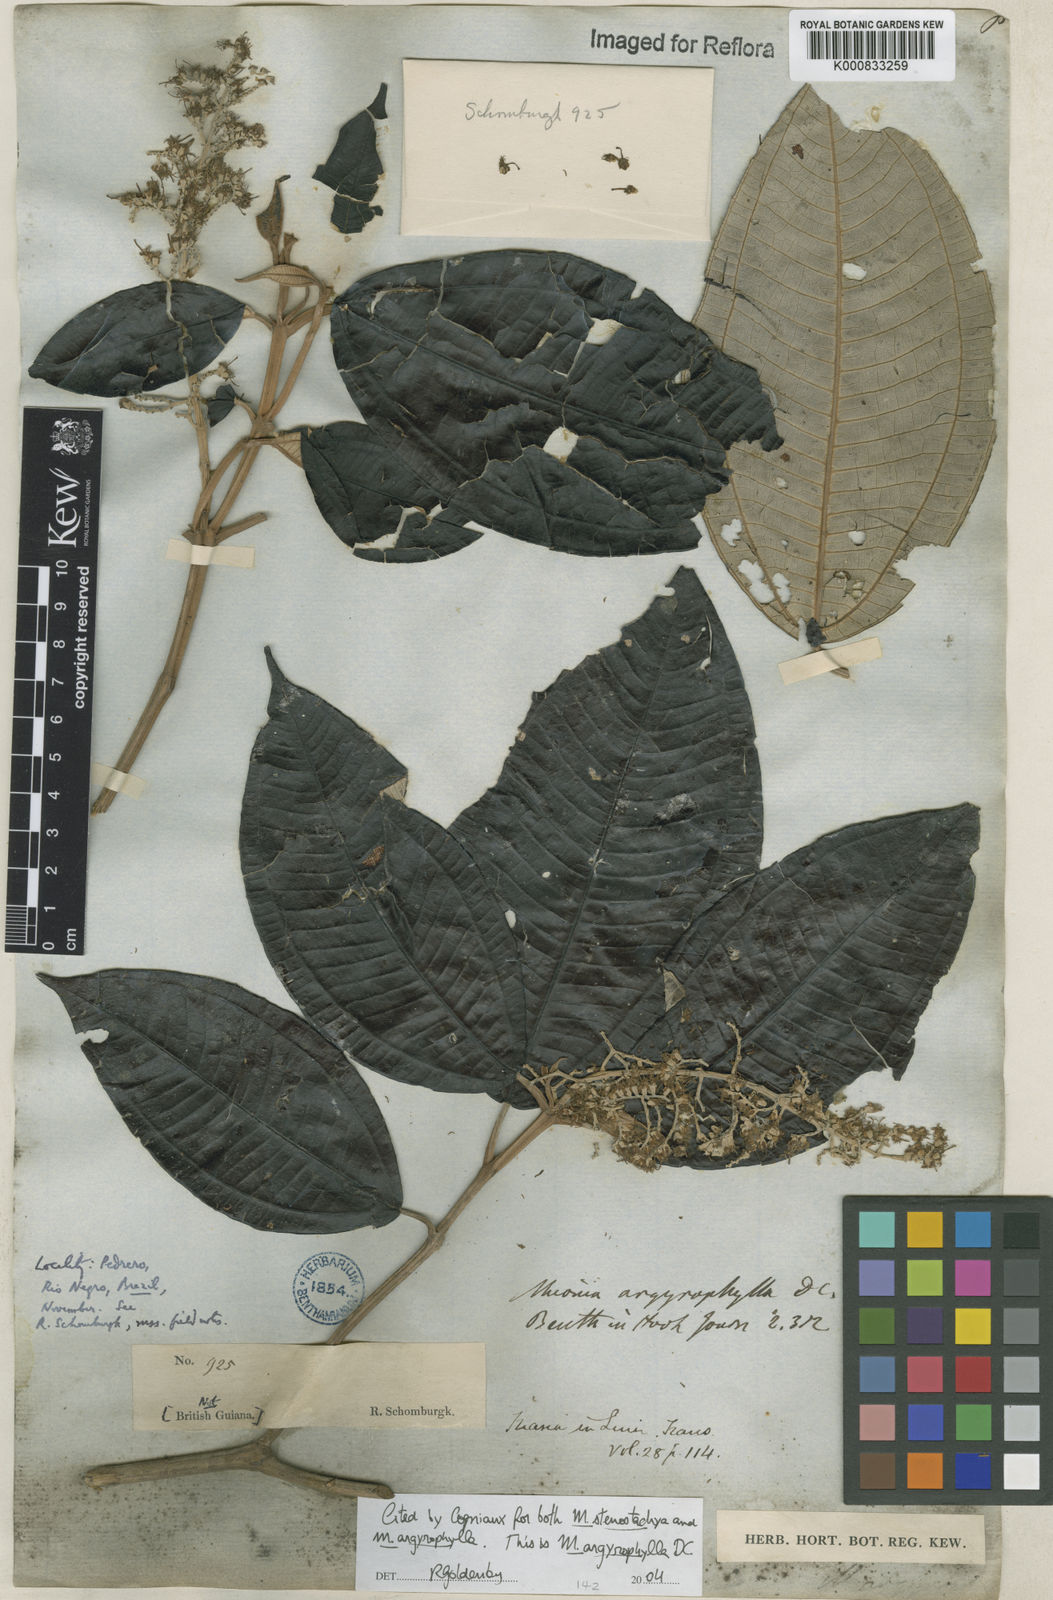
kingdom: Plantae
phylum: Tracheophyta
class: Magnoliopsida
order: Myrtales
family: Melastomataceae
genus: Miconia
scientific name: Miconia argyrophylla
